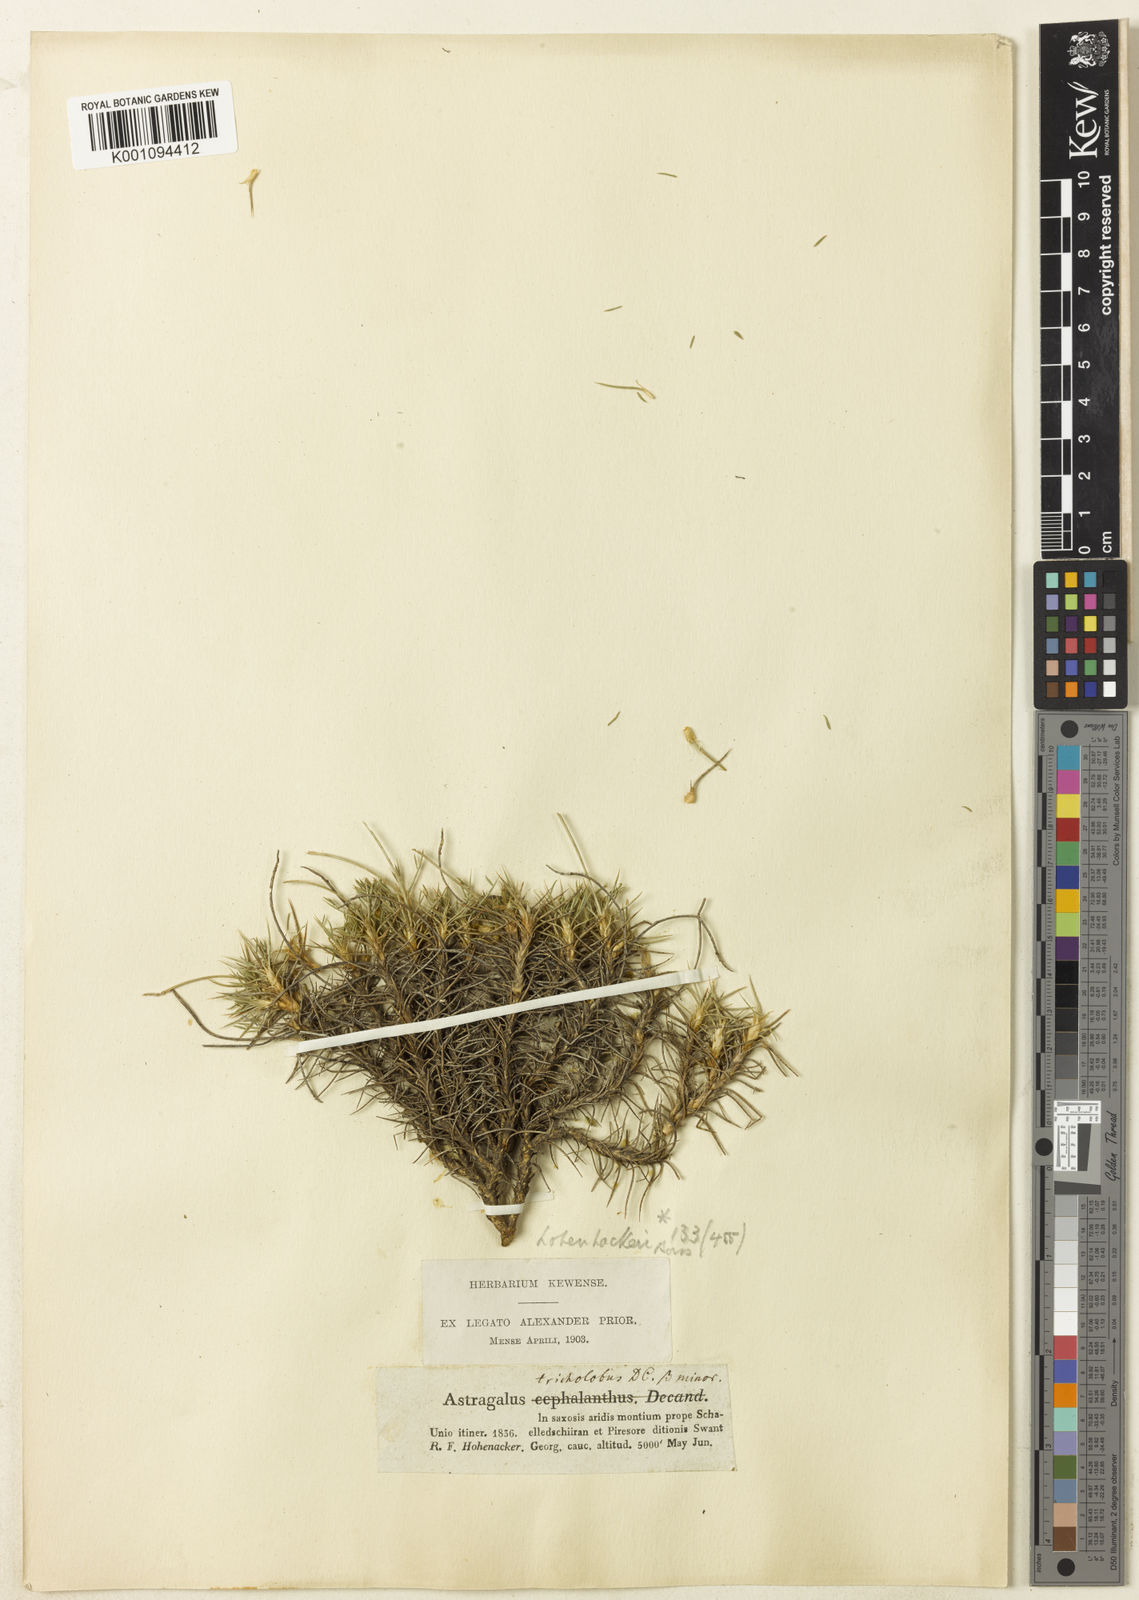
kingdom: Plantae
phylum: Tracheophyta
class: Magnoliopsida
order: Fabales
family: Fabaceae
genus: Astragalus
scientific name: Astragalus
